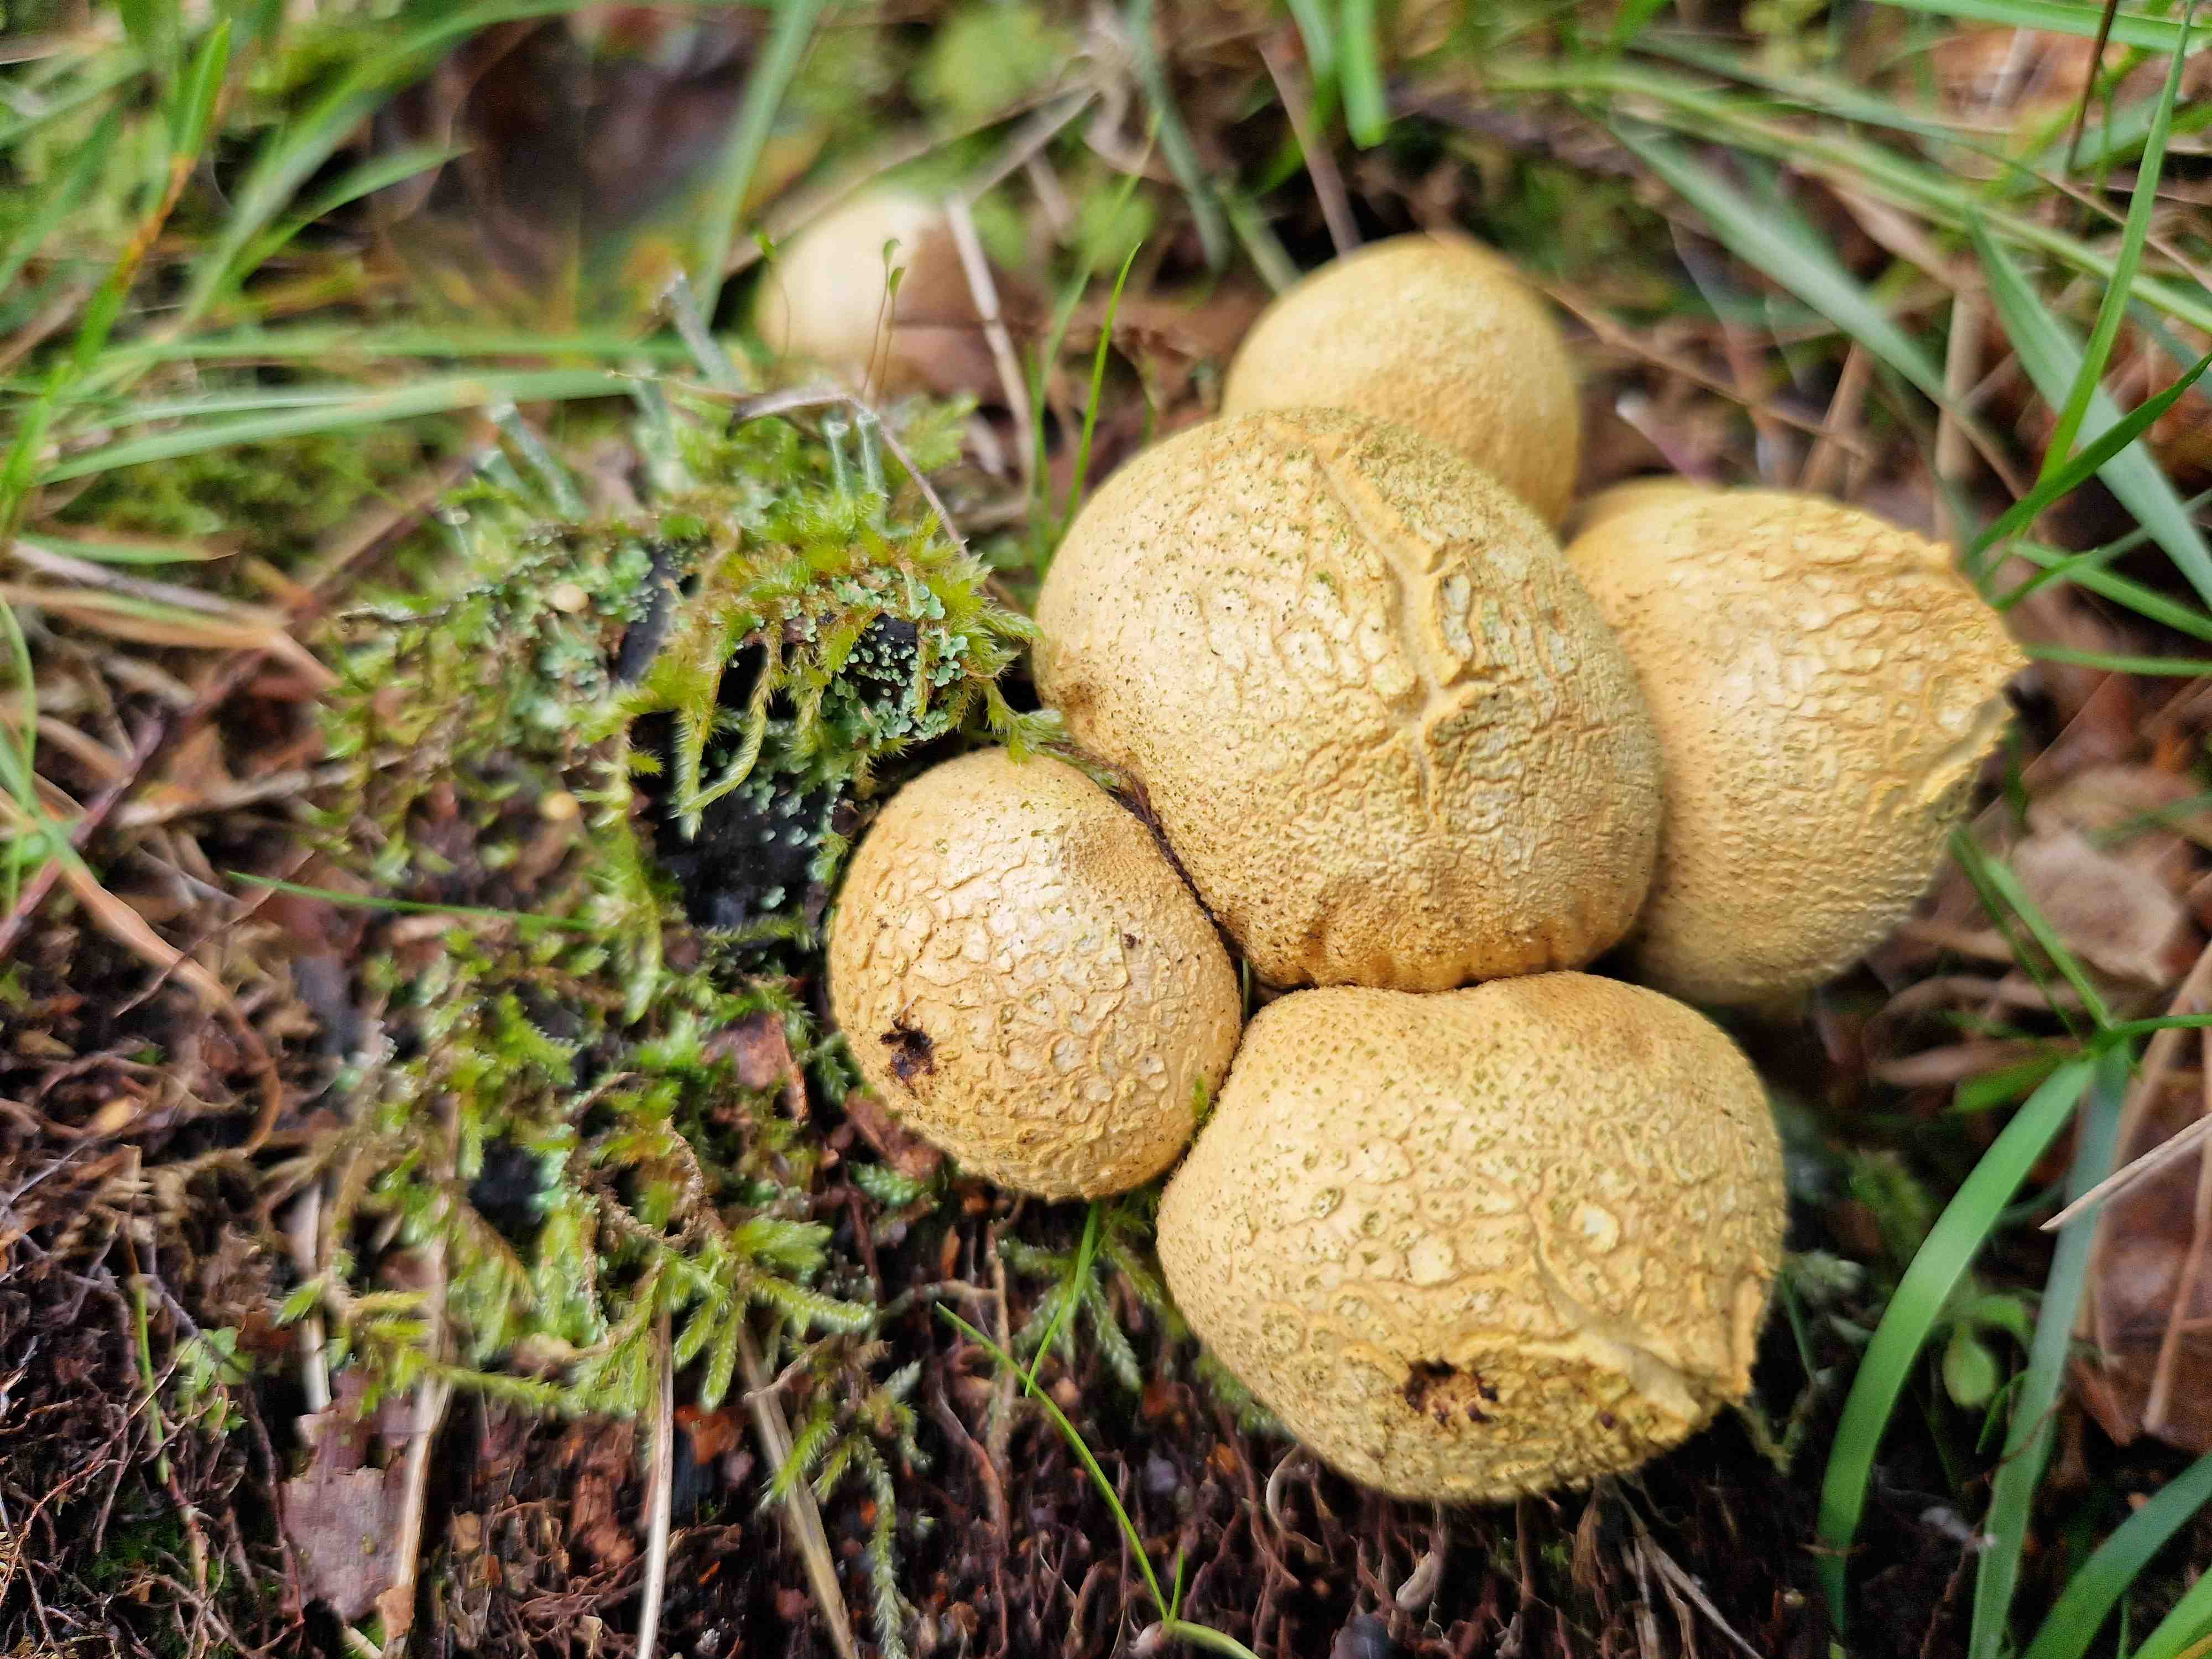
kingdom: Fungi
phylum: Basidiomycota
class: Agaricomycetes
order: Boletales
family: Sclerodermataceae
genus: Scleroderma
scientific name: Scleroderma citrinum
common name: almindelig bruskbold
